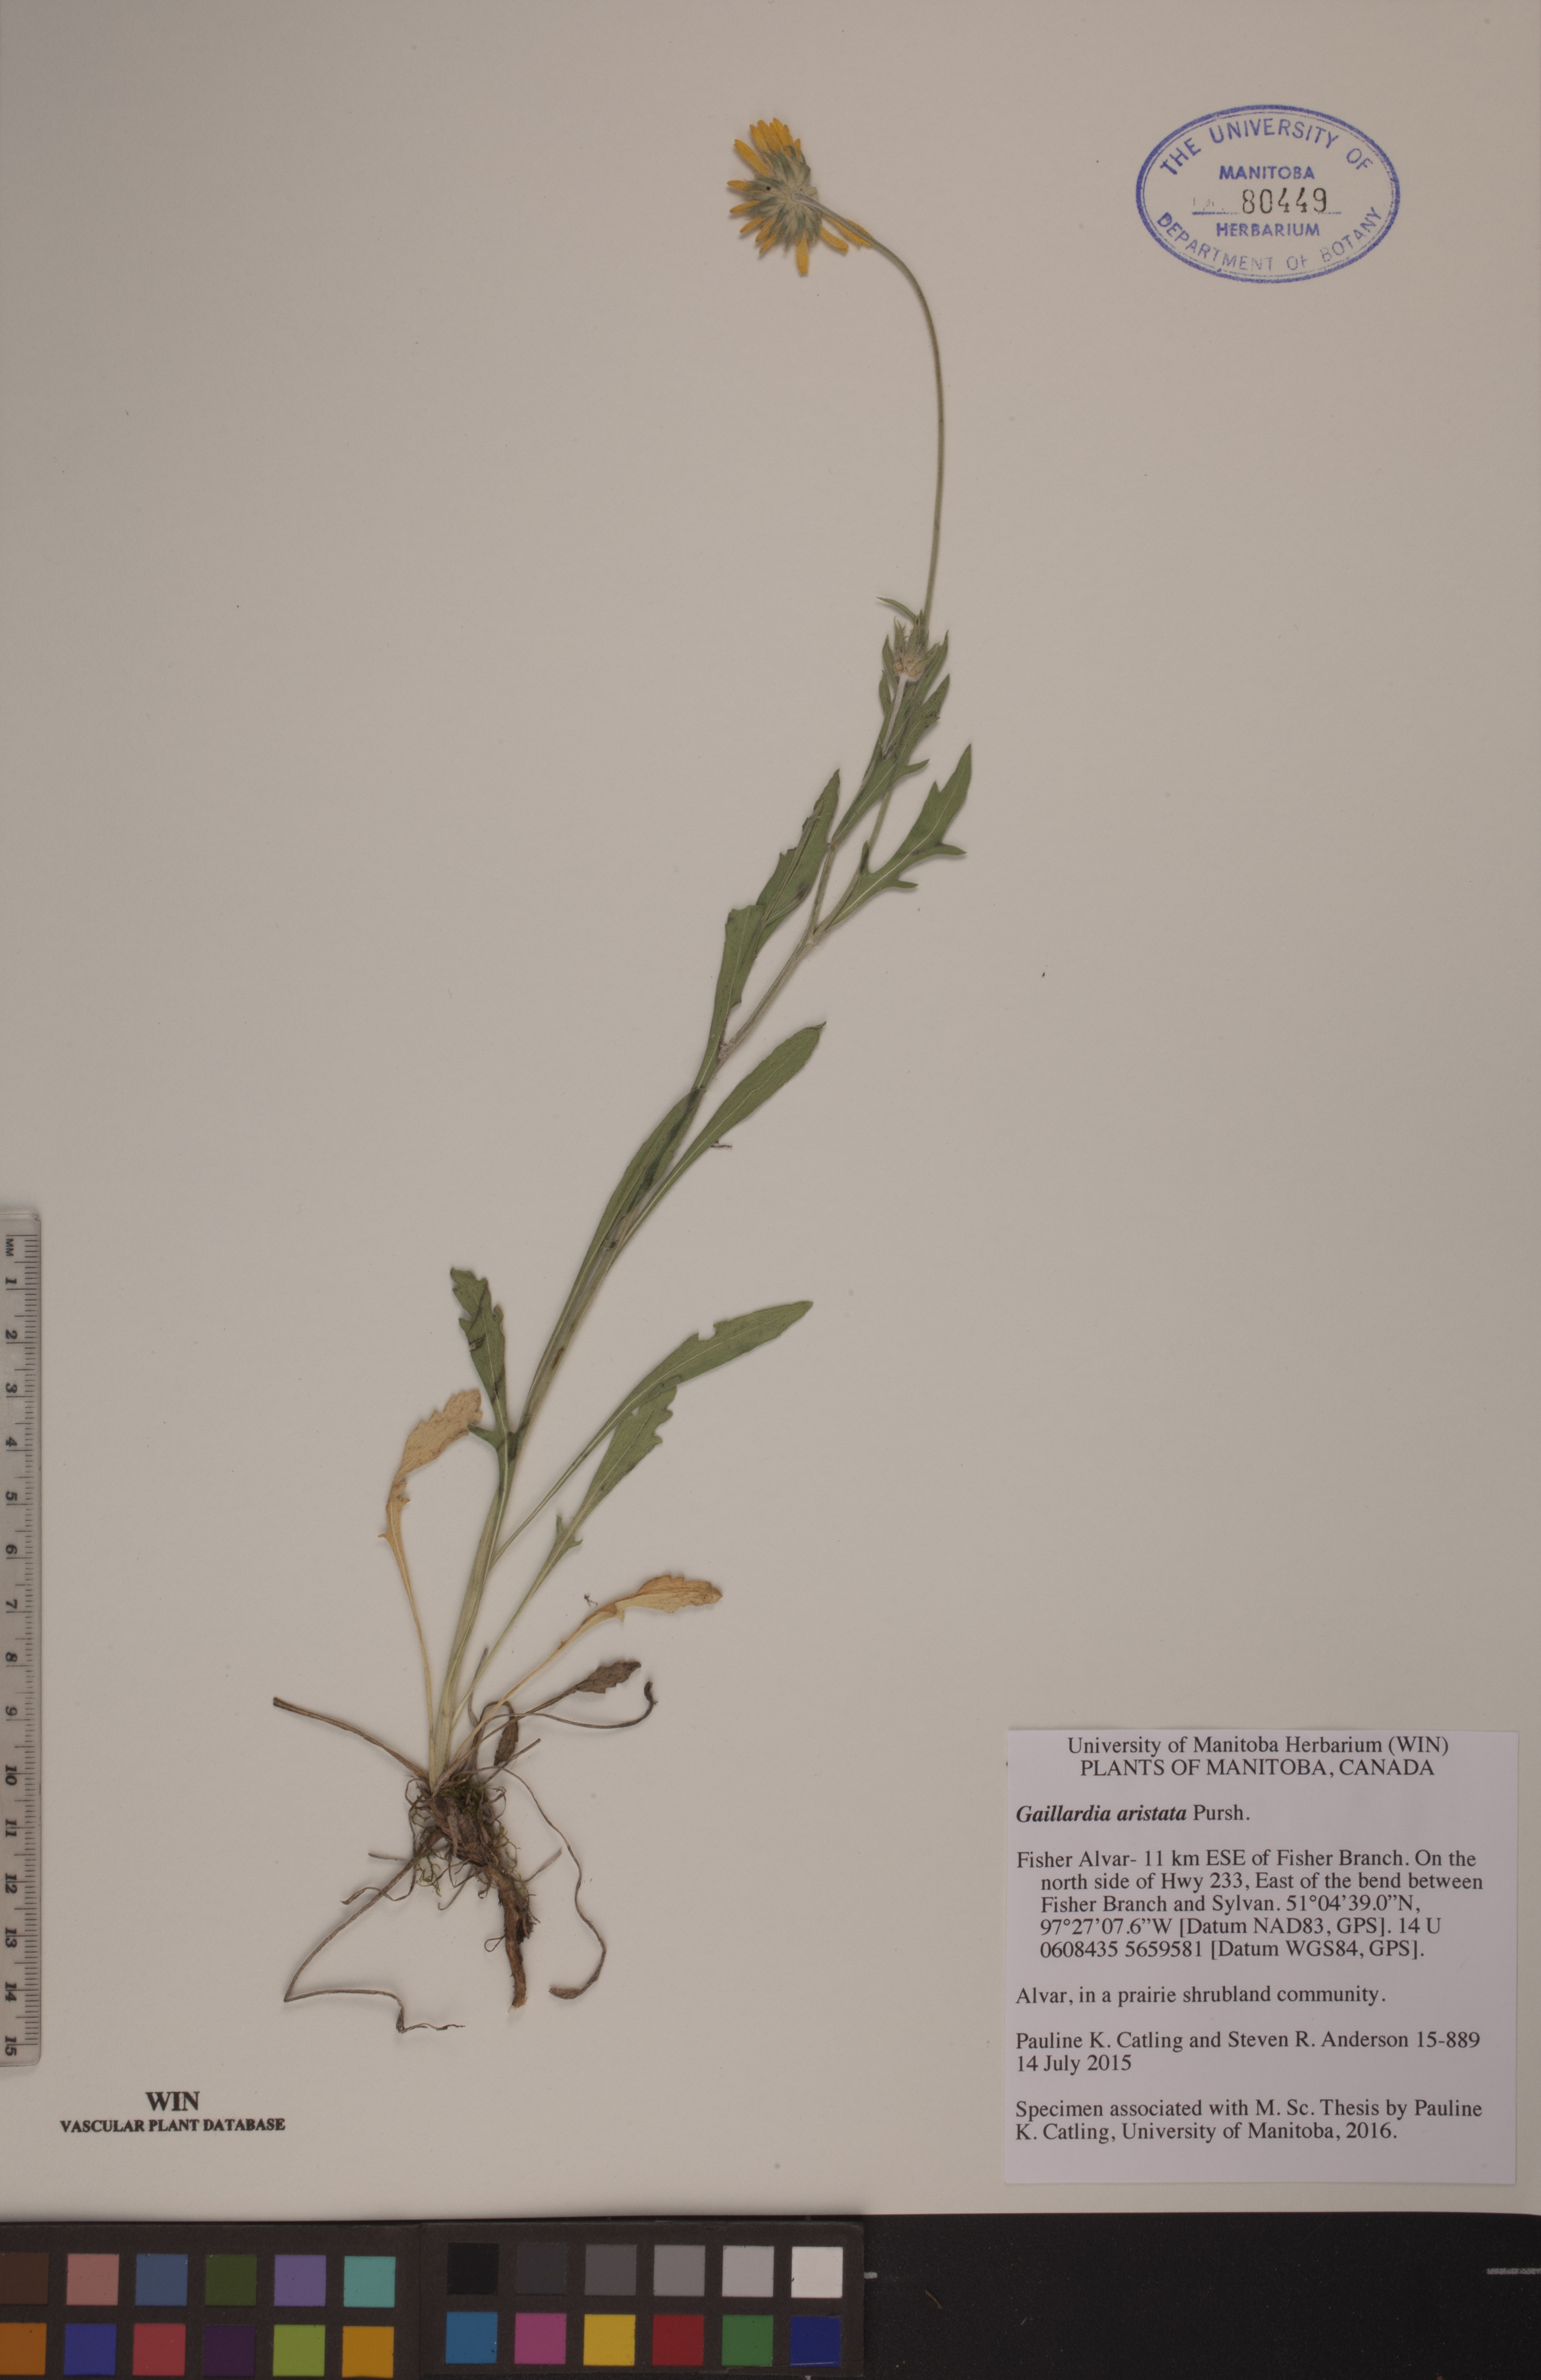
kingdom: Plantae
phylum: Tracheophyta
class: Magnoliopsida
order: Asterales
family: Asteraceae
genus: Gaillardia
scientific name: Gaillardia aristata
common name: Blanket-flower
